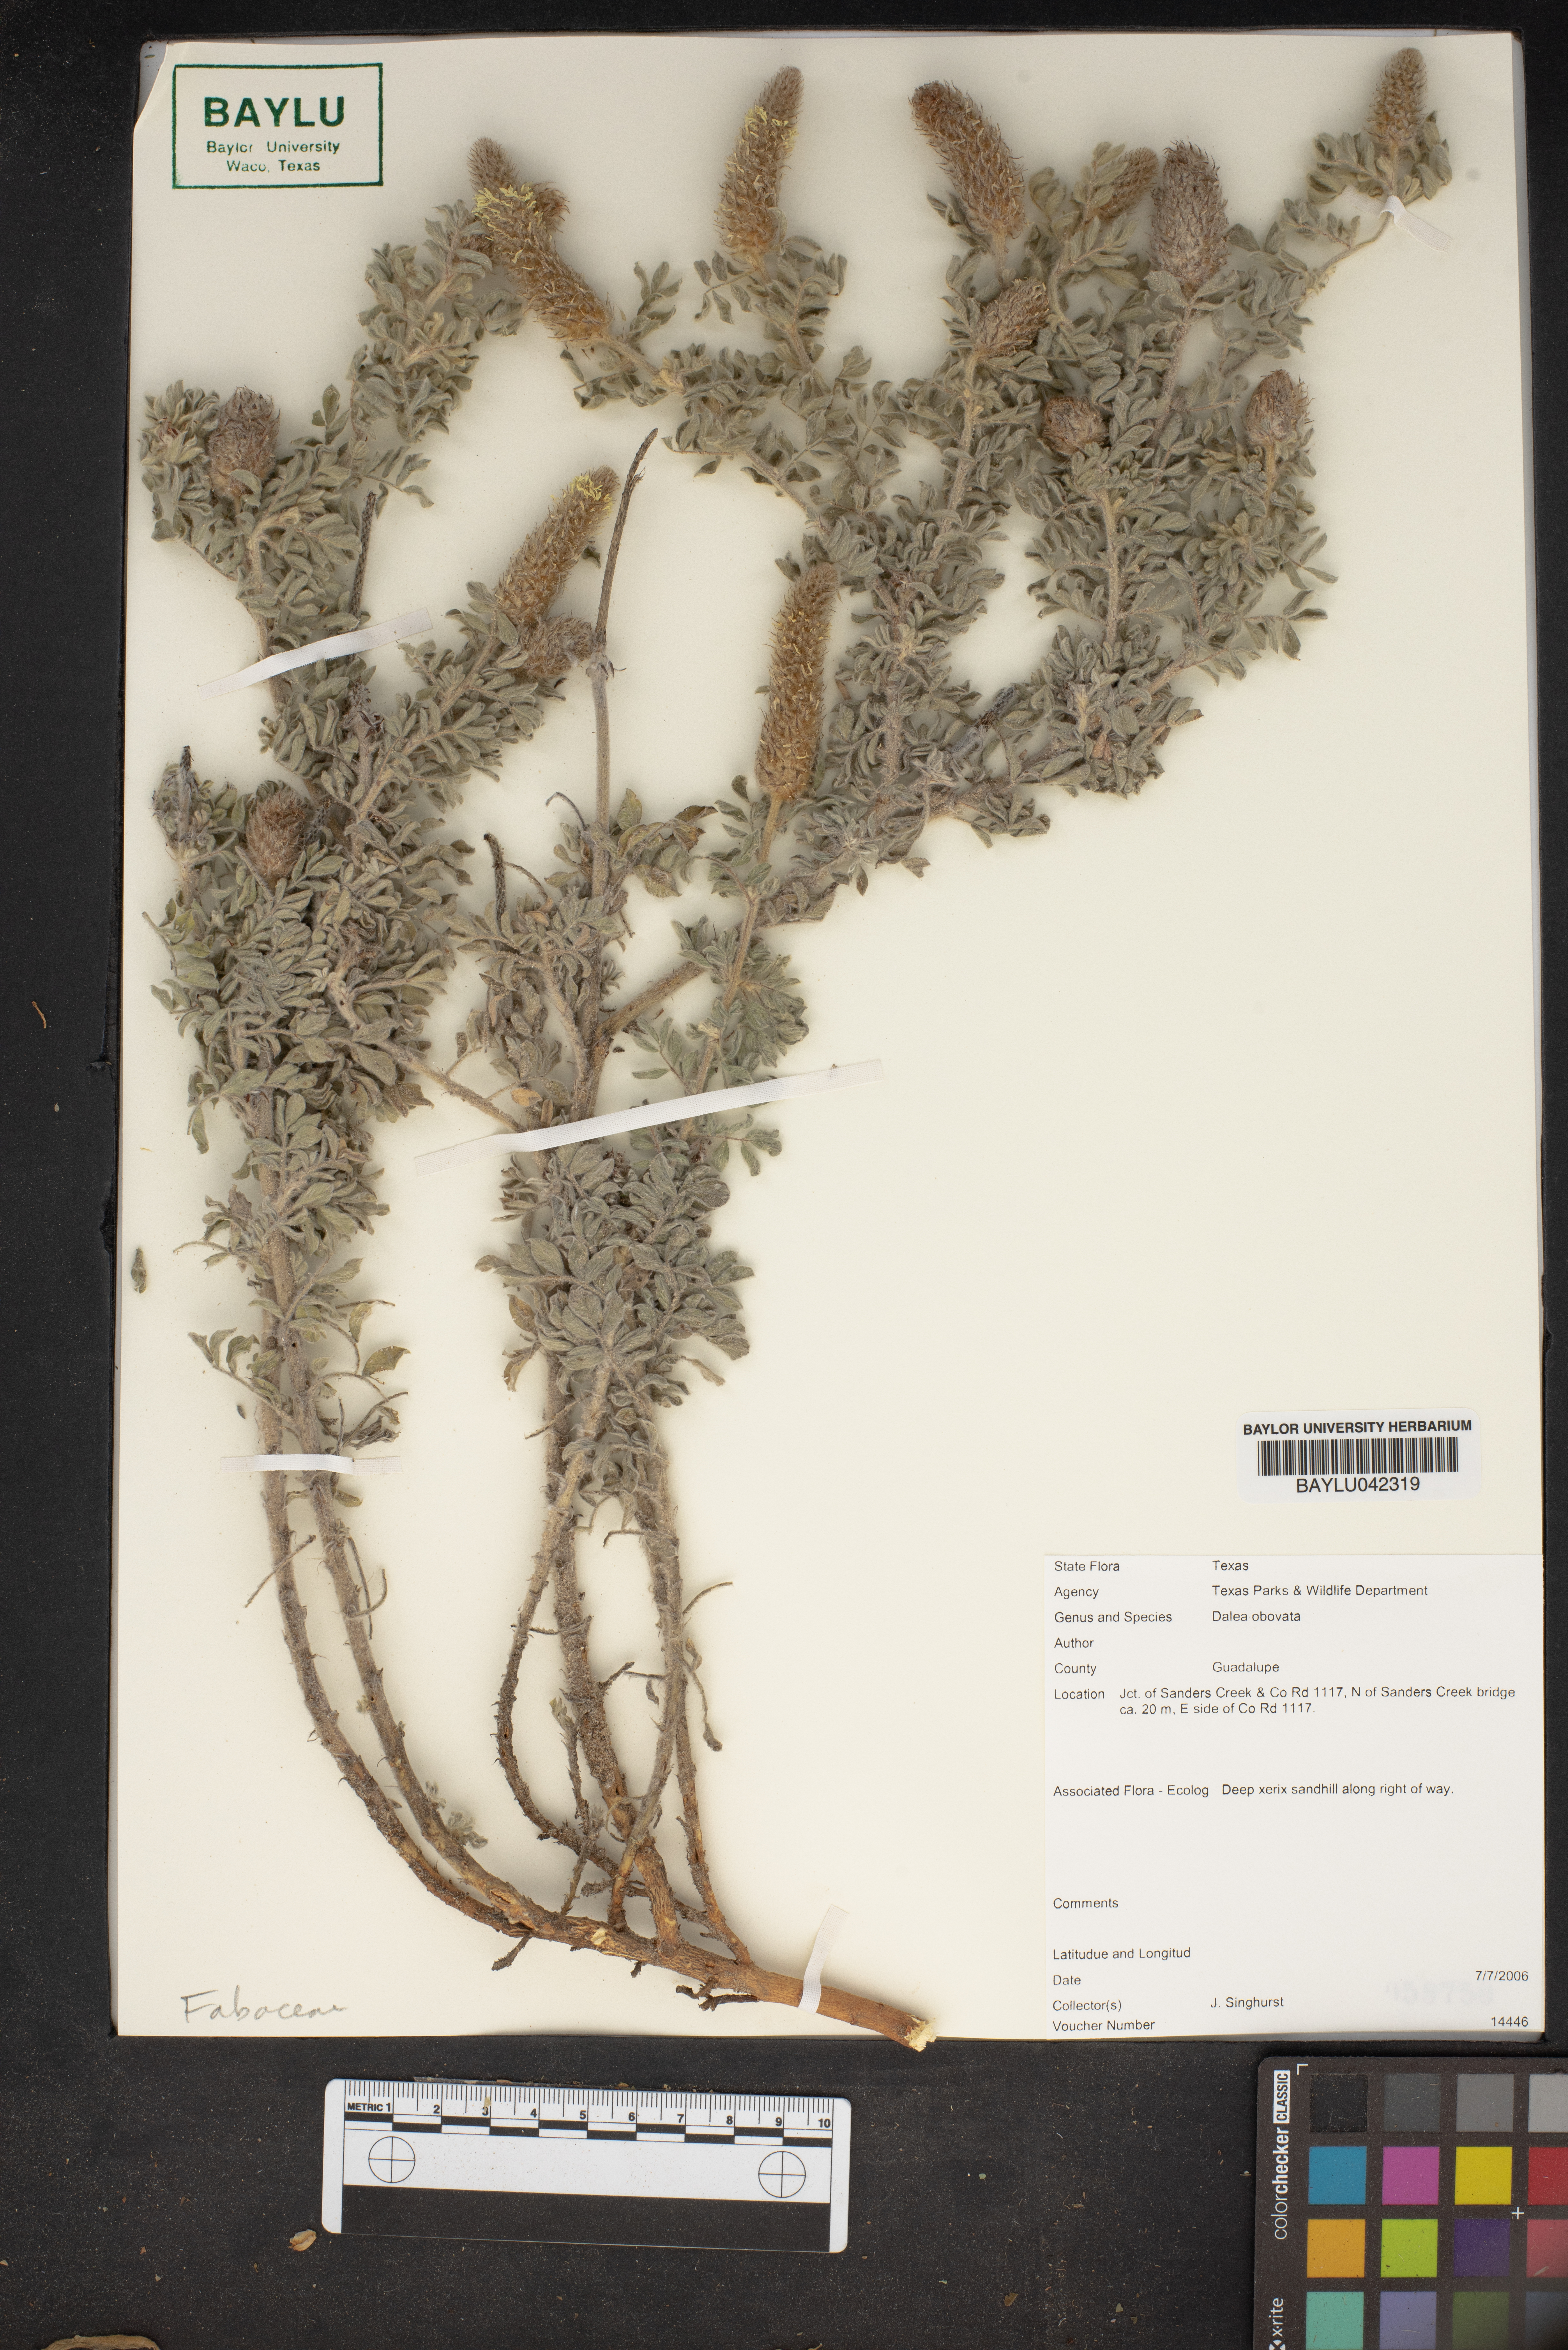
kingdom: Plantae
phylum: Tracheophyta
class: Magnoliopsida
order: Fabales
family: Fabaceae
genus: Dalea
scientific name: Dalea obovata
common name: Pussyfoot
